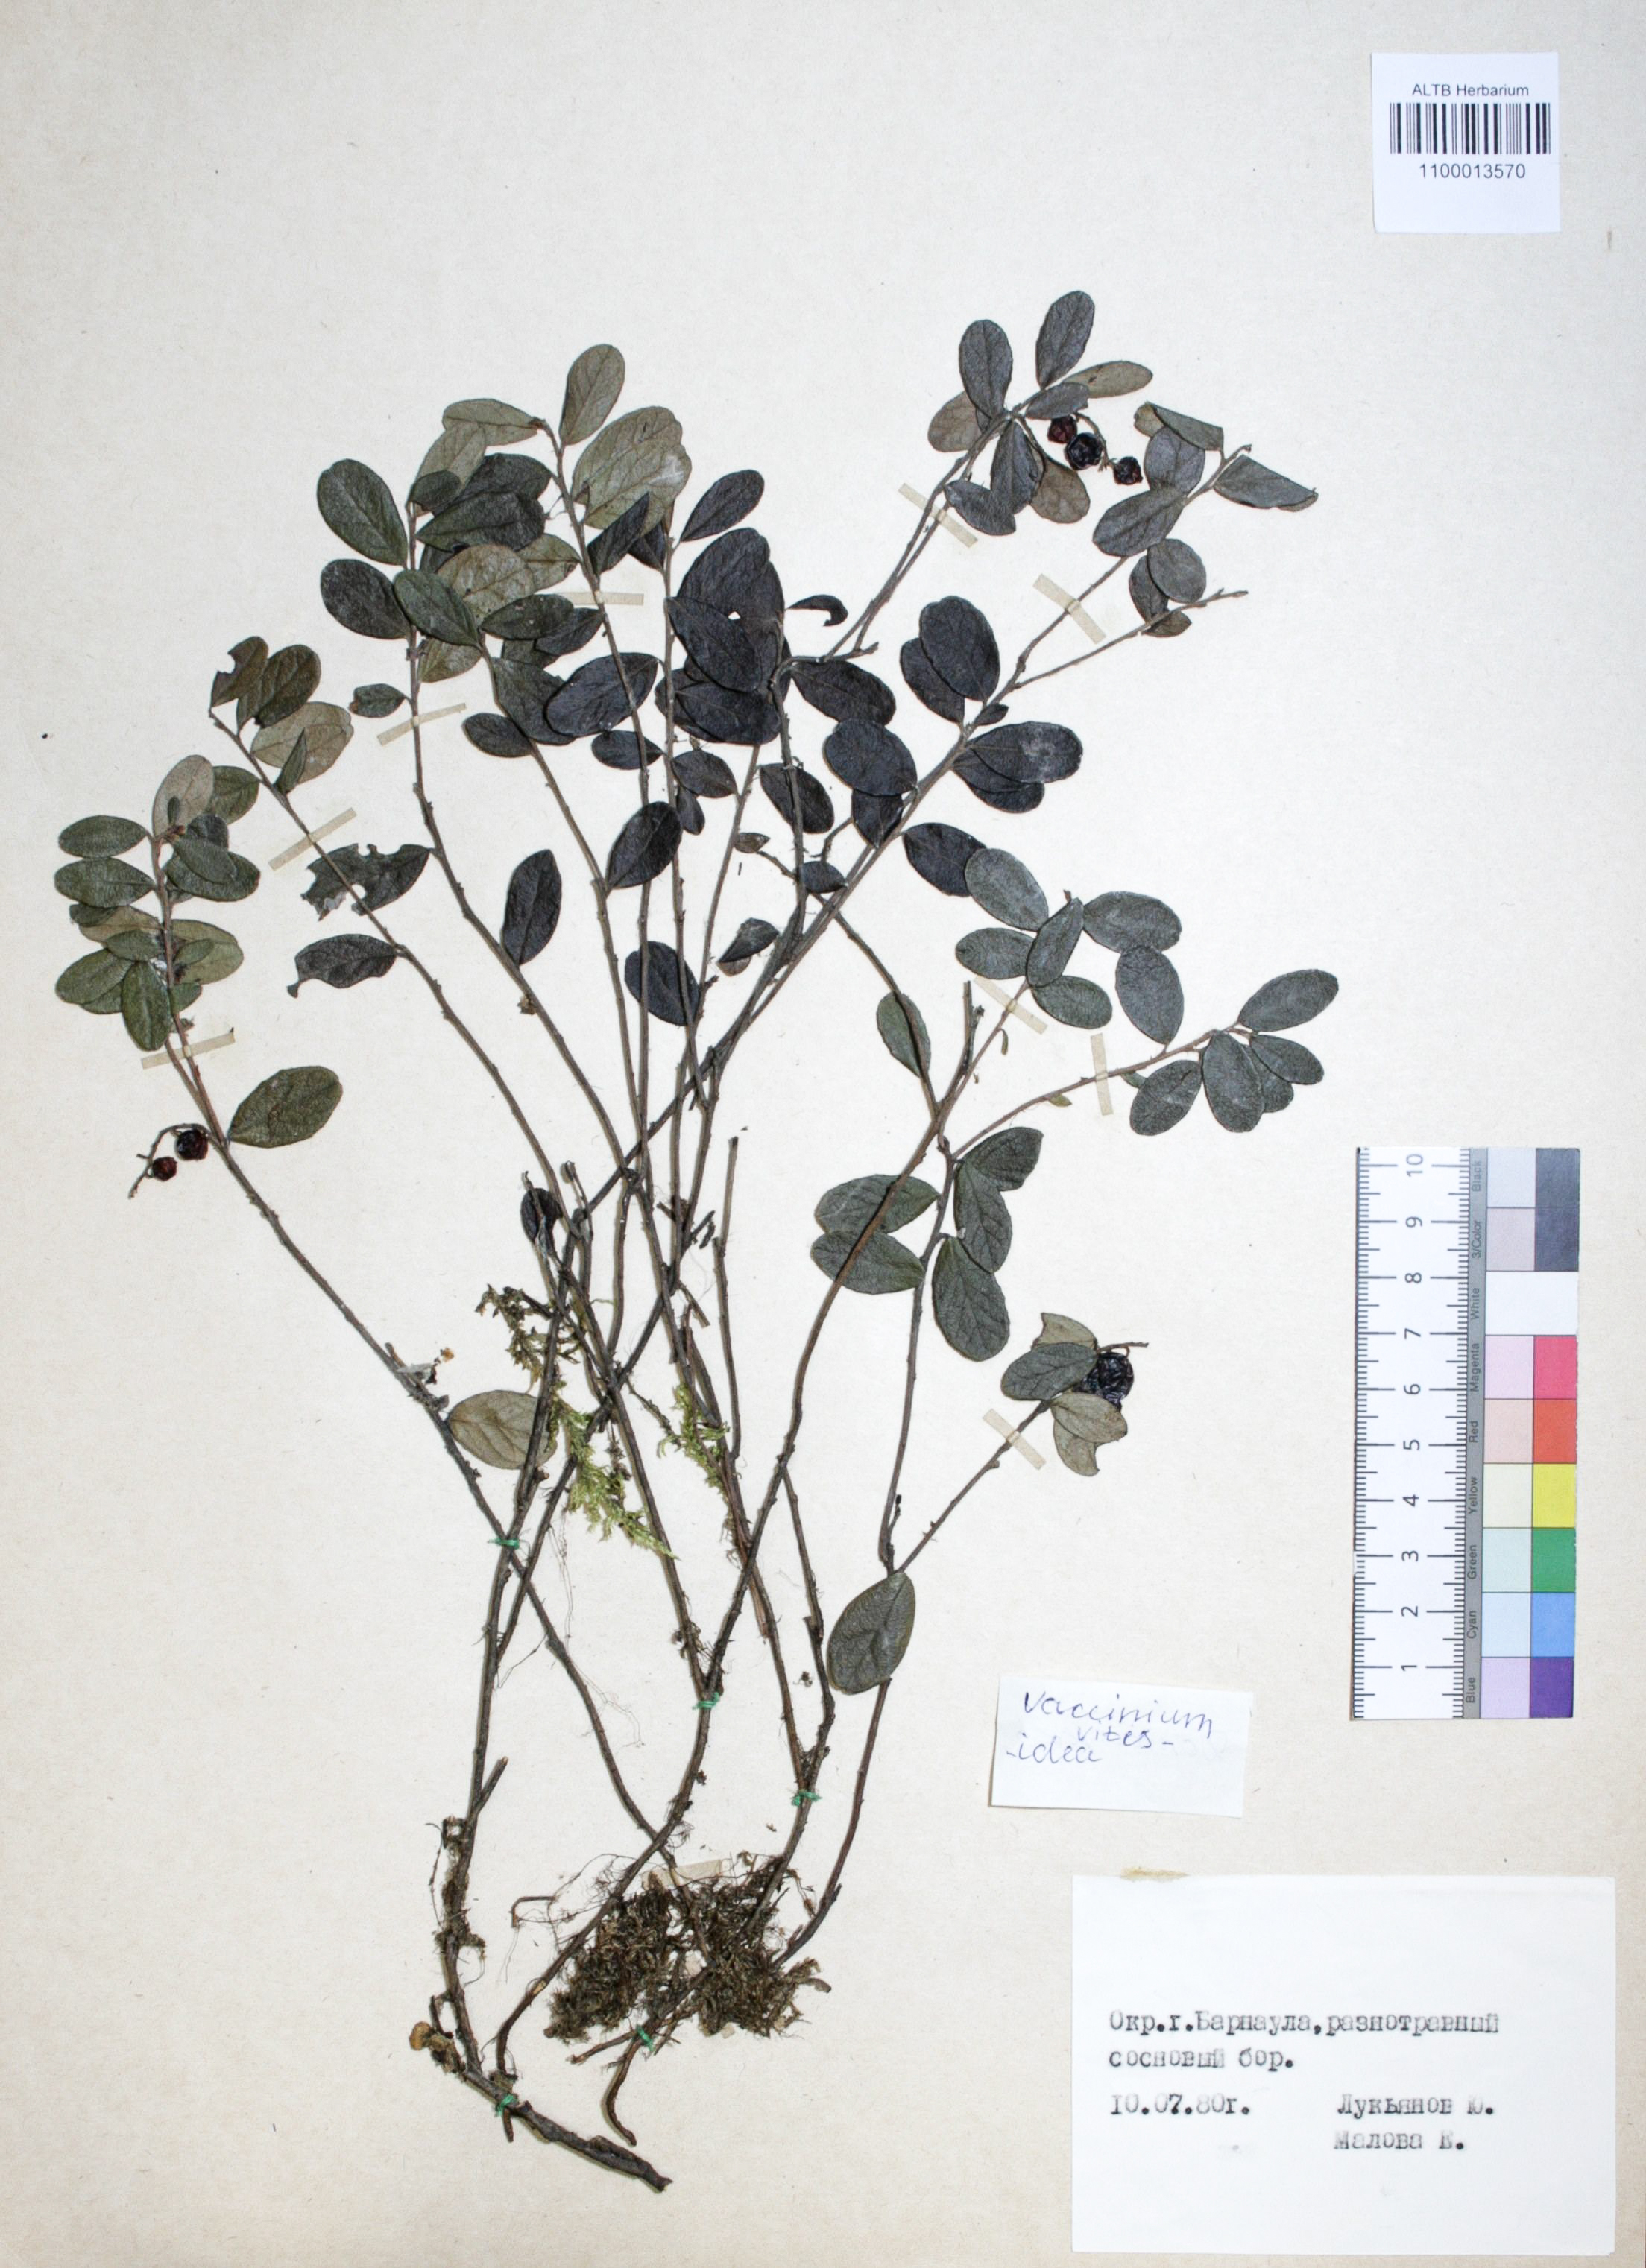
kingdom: Plantae
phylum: Tracheophyta
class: Magnoliopsida
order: Ericales
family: Ericaceae
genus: Vaccinium
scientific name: Vaccinium vitis-idaea
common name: Cowberry
